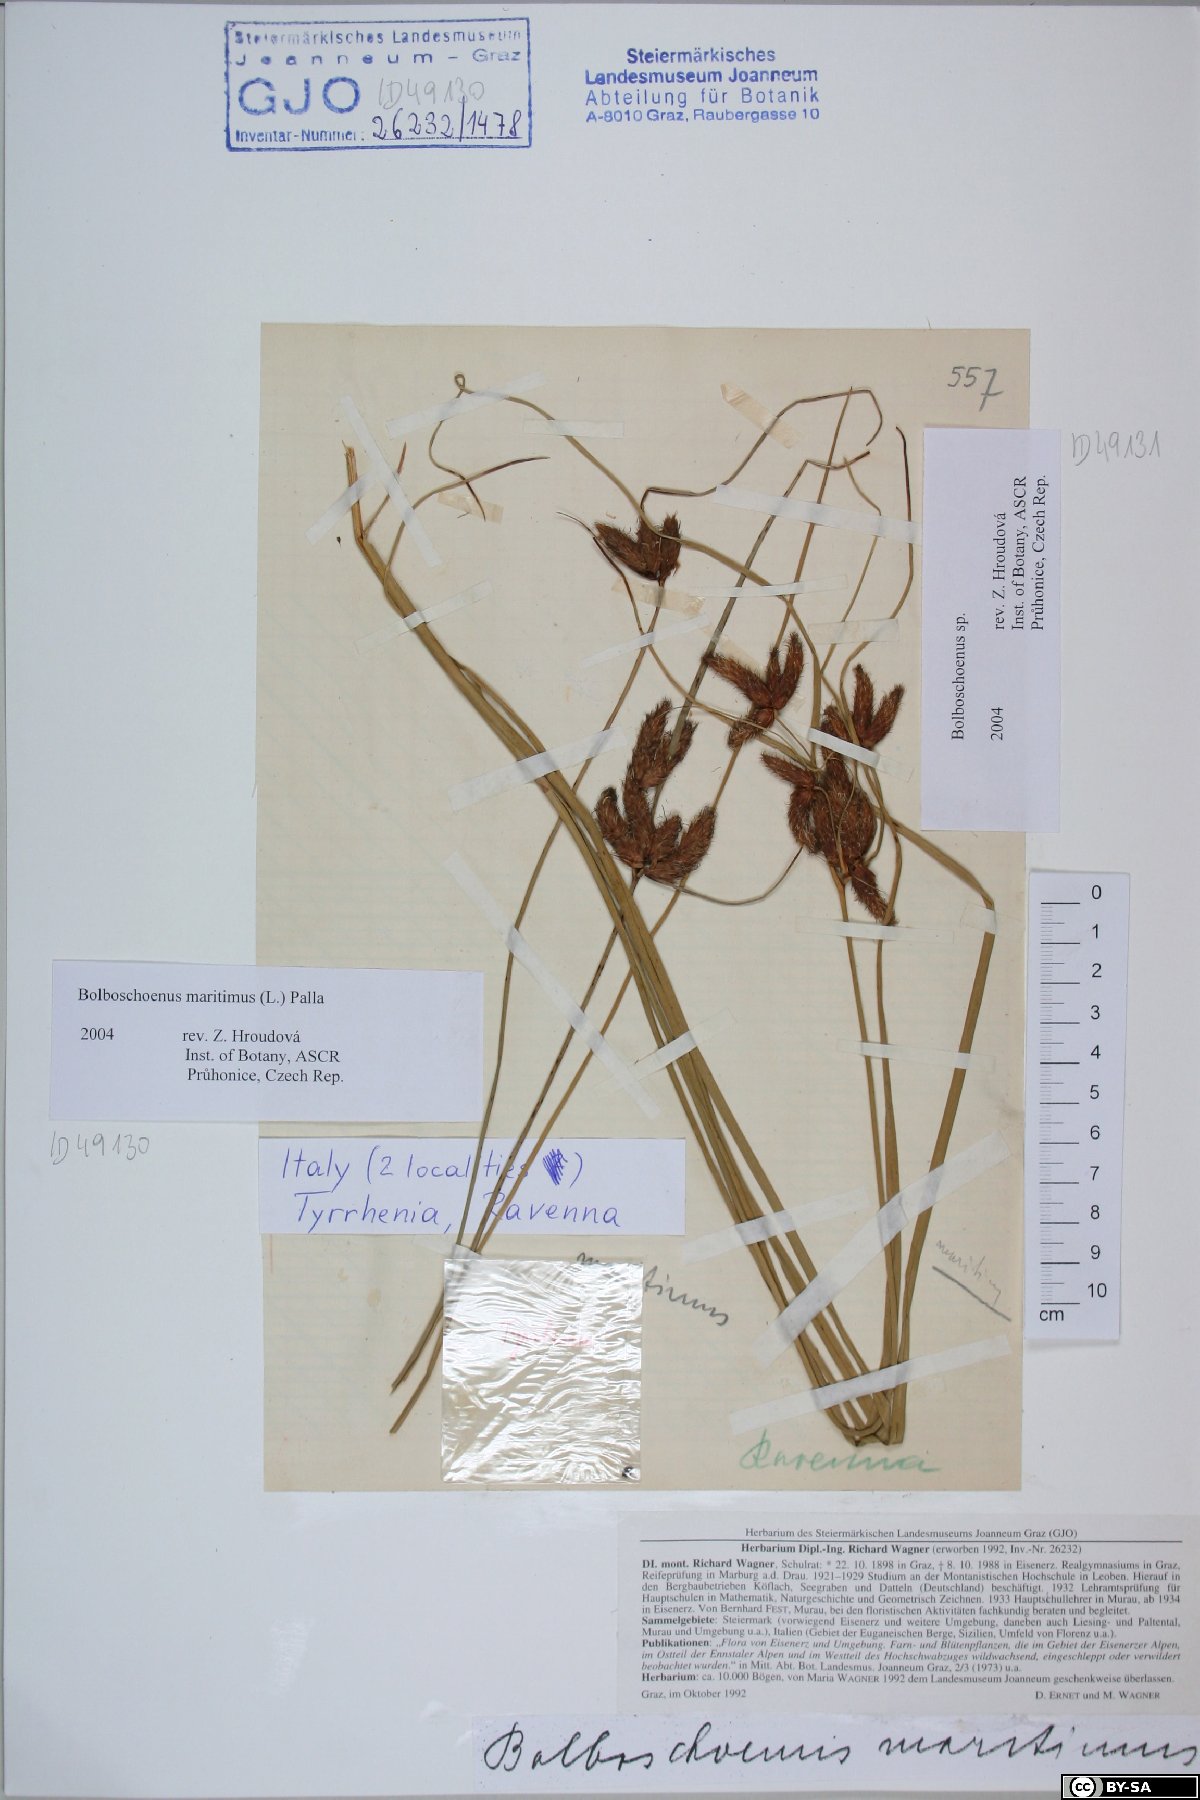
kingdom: Plantae
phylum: Tracheophyta
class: Liliopsida
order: Poales
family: Cyperaceae
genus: Bolboschoenus
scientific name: Bolboschoenus maritimus
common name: Sea club-rush
